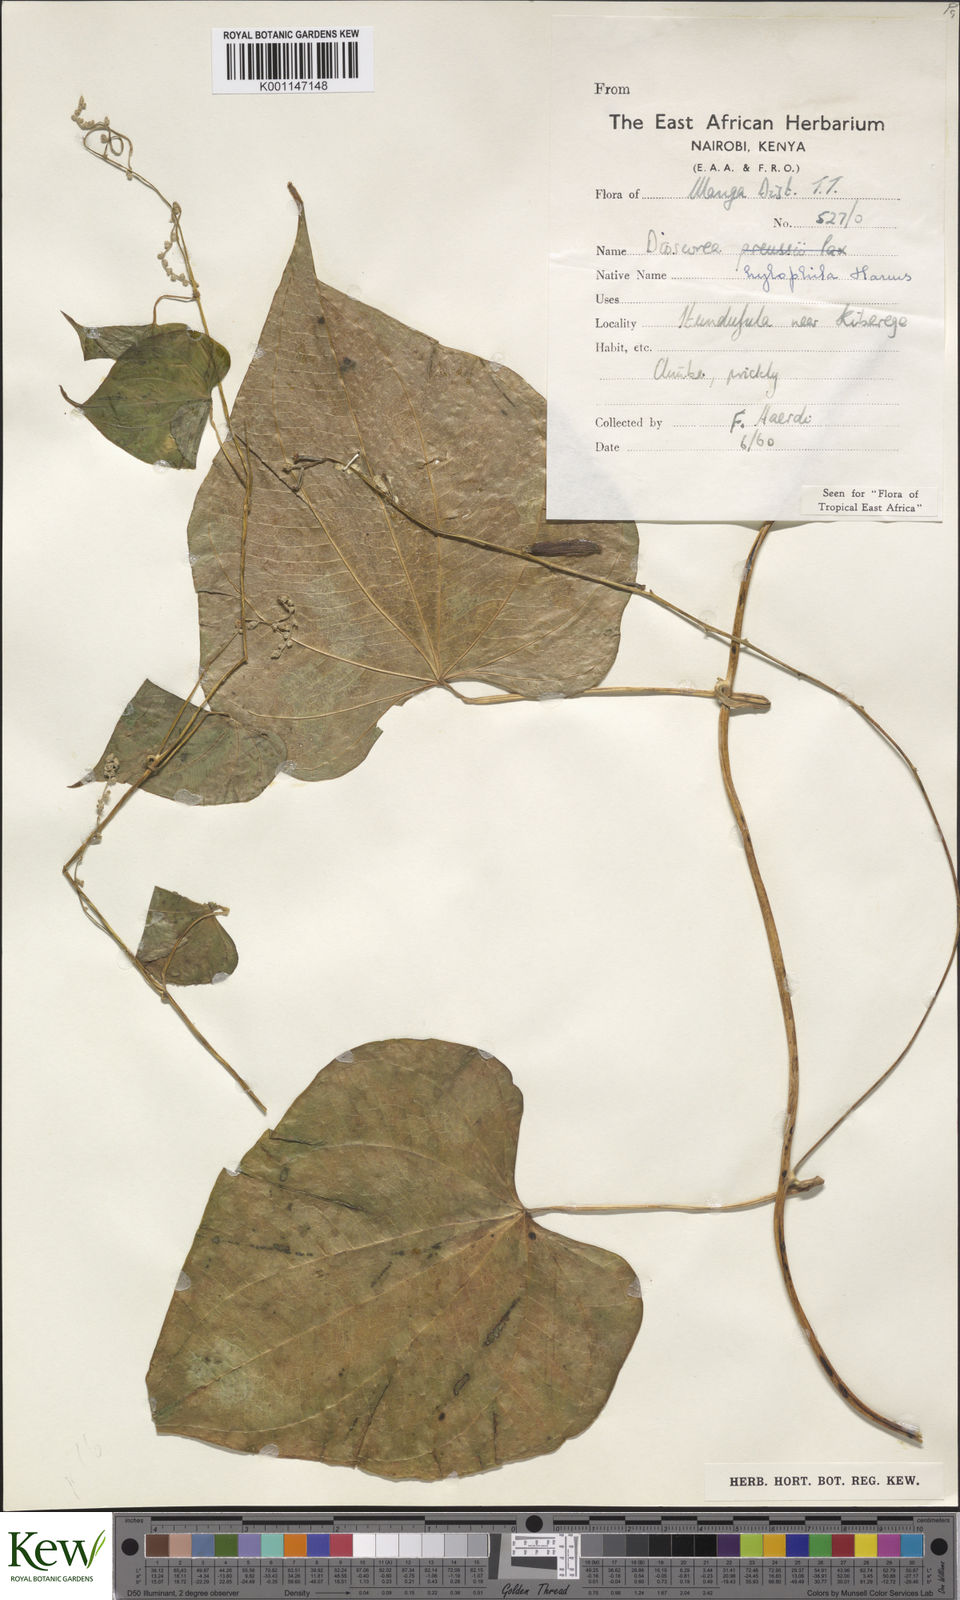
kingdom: Plantae
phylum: Tracheophyta
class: Liliopsida
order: Dioscoreales
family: Dioscoreaceae
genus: Dioscorea
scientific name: Dioscorea
